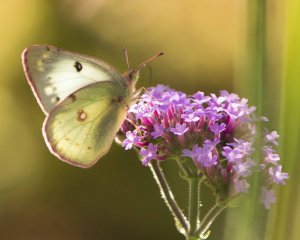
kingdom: Animalia
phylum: Arthropoda
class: Insecta
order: Lepidoptera
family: Pieridae
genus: Colias
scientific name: Colias philodice
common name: Clouded Sulphur
